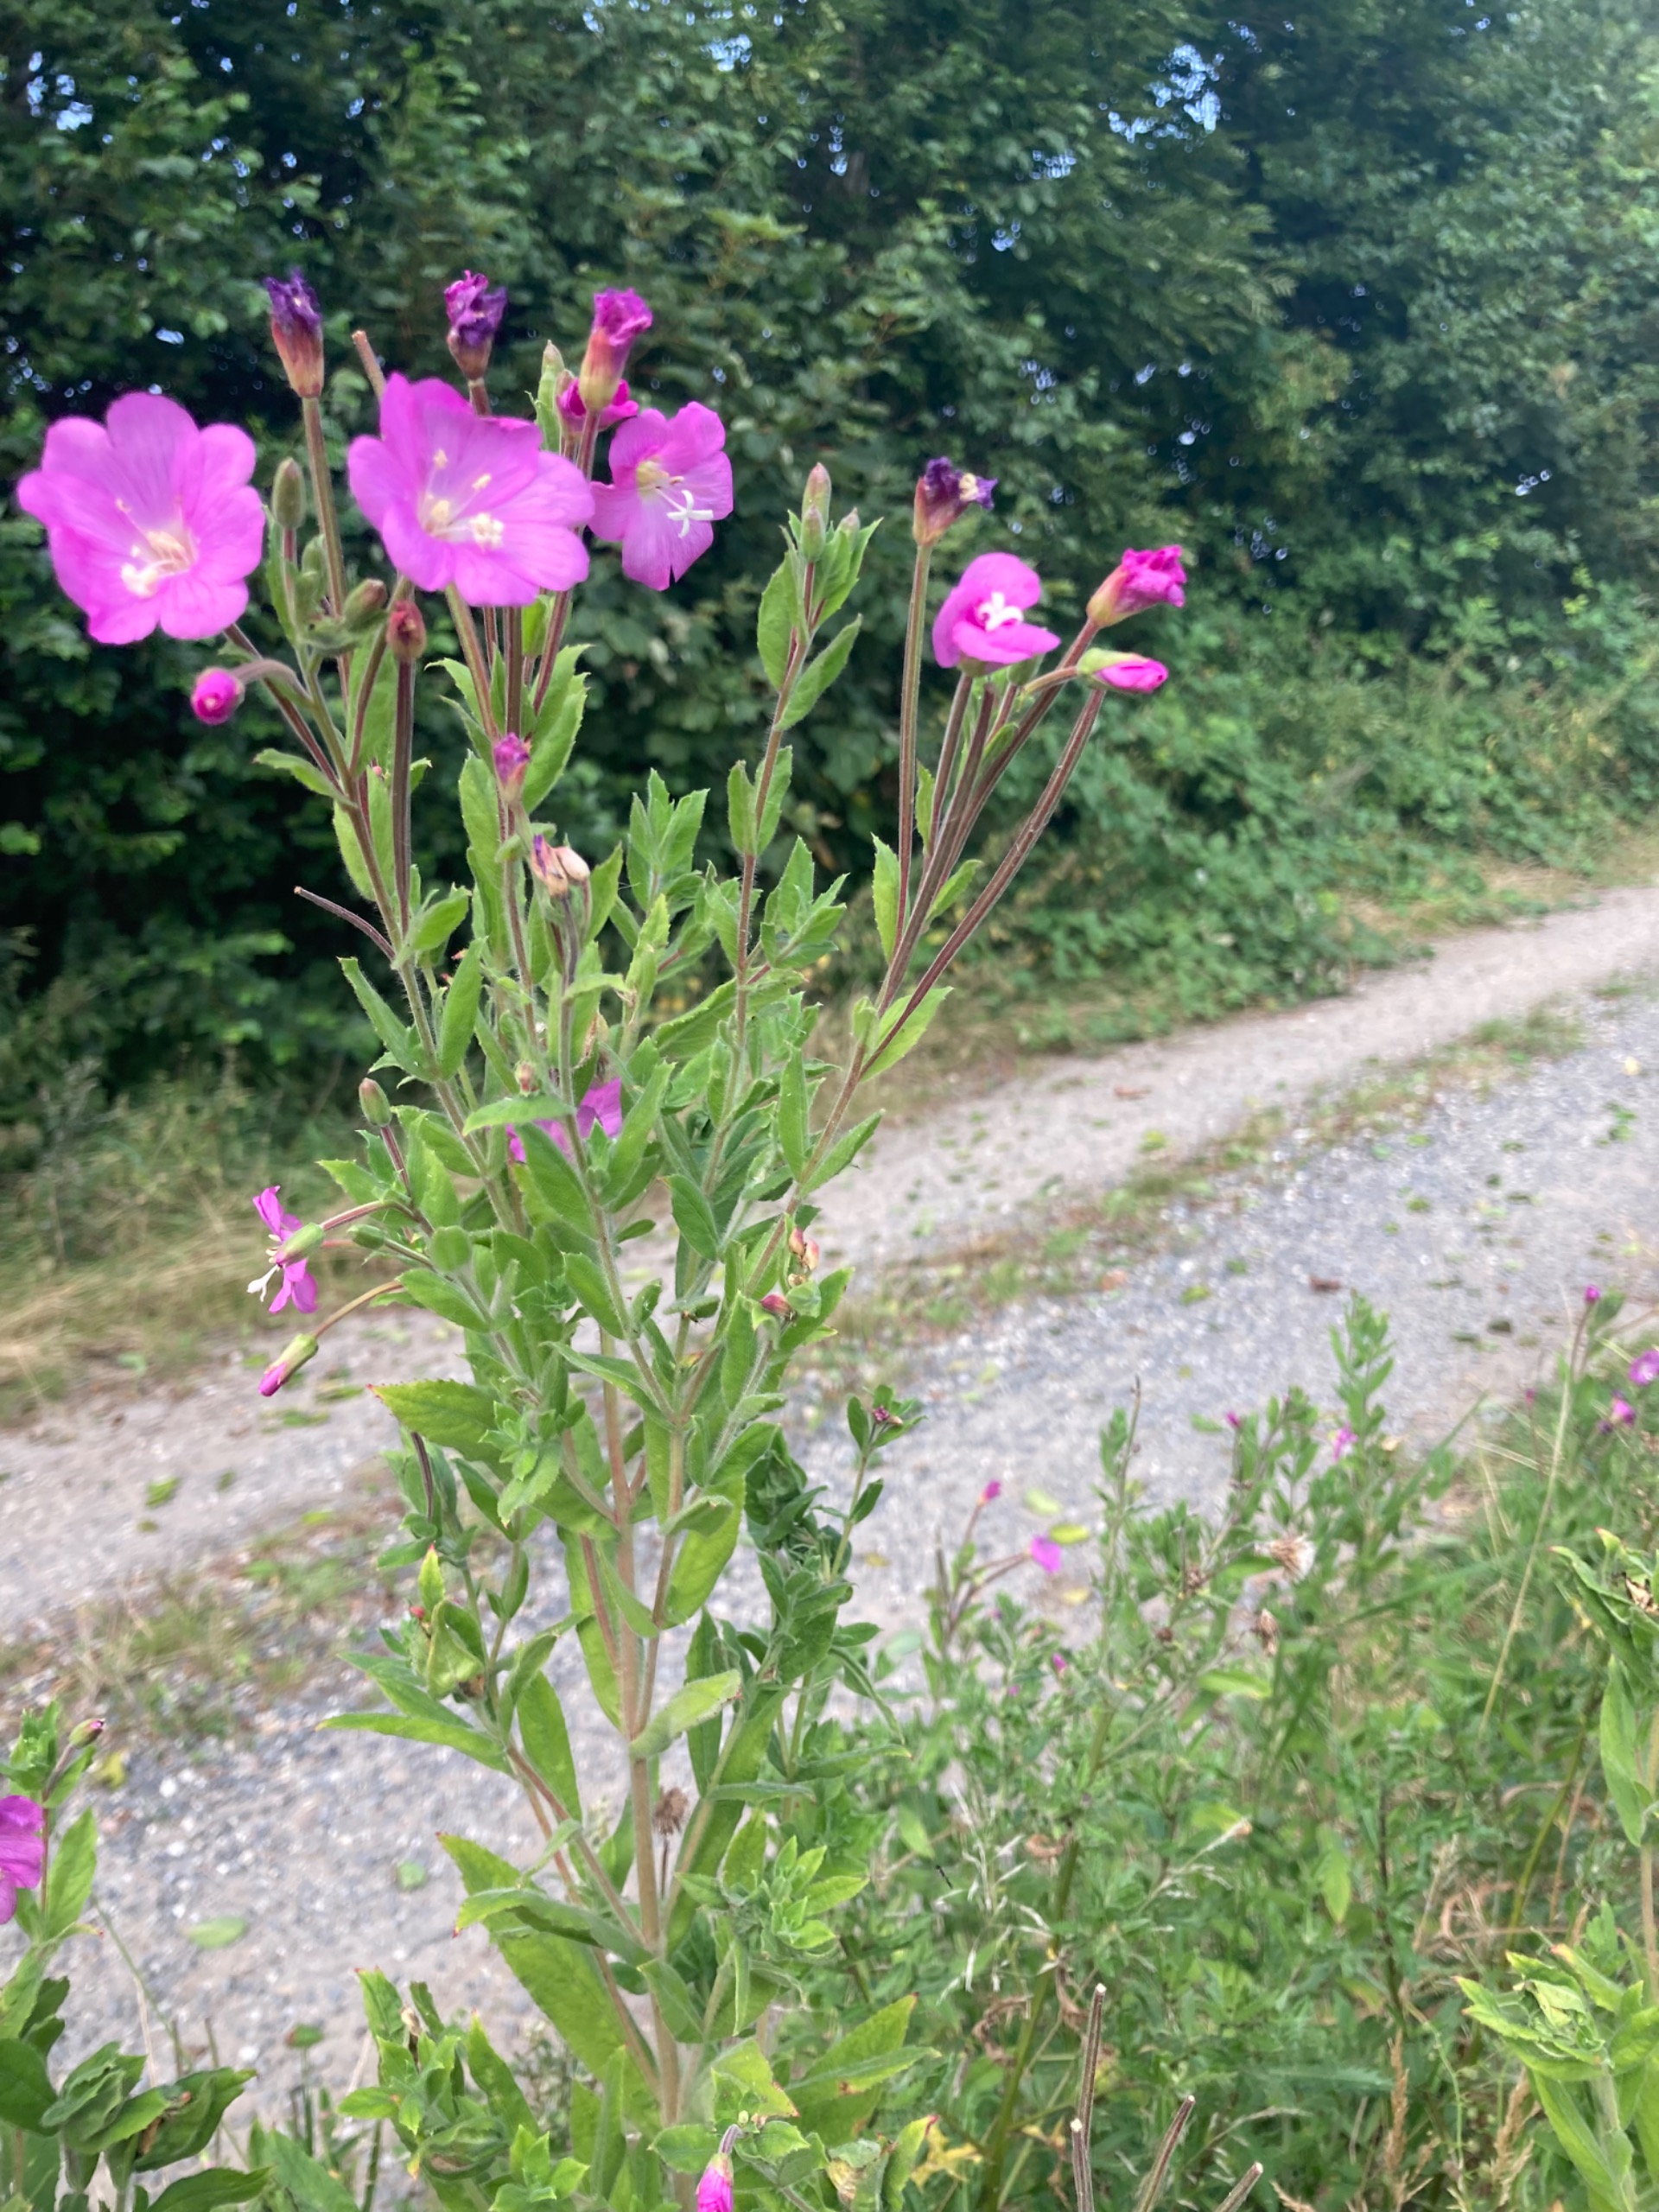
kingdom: Plantae
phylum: Tracheophyta
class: Magnoliopsida
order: Myrtales
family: Onagraceae
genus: Epilobium
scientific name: Epilobium hirsutum
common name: Lådden dueurt
